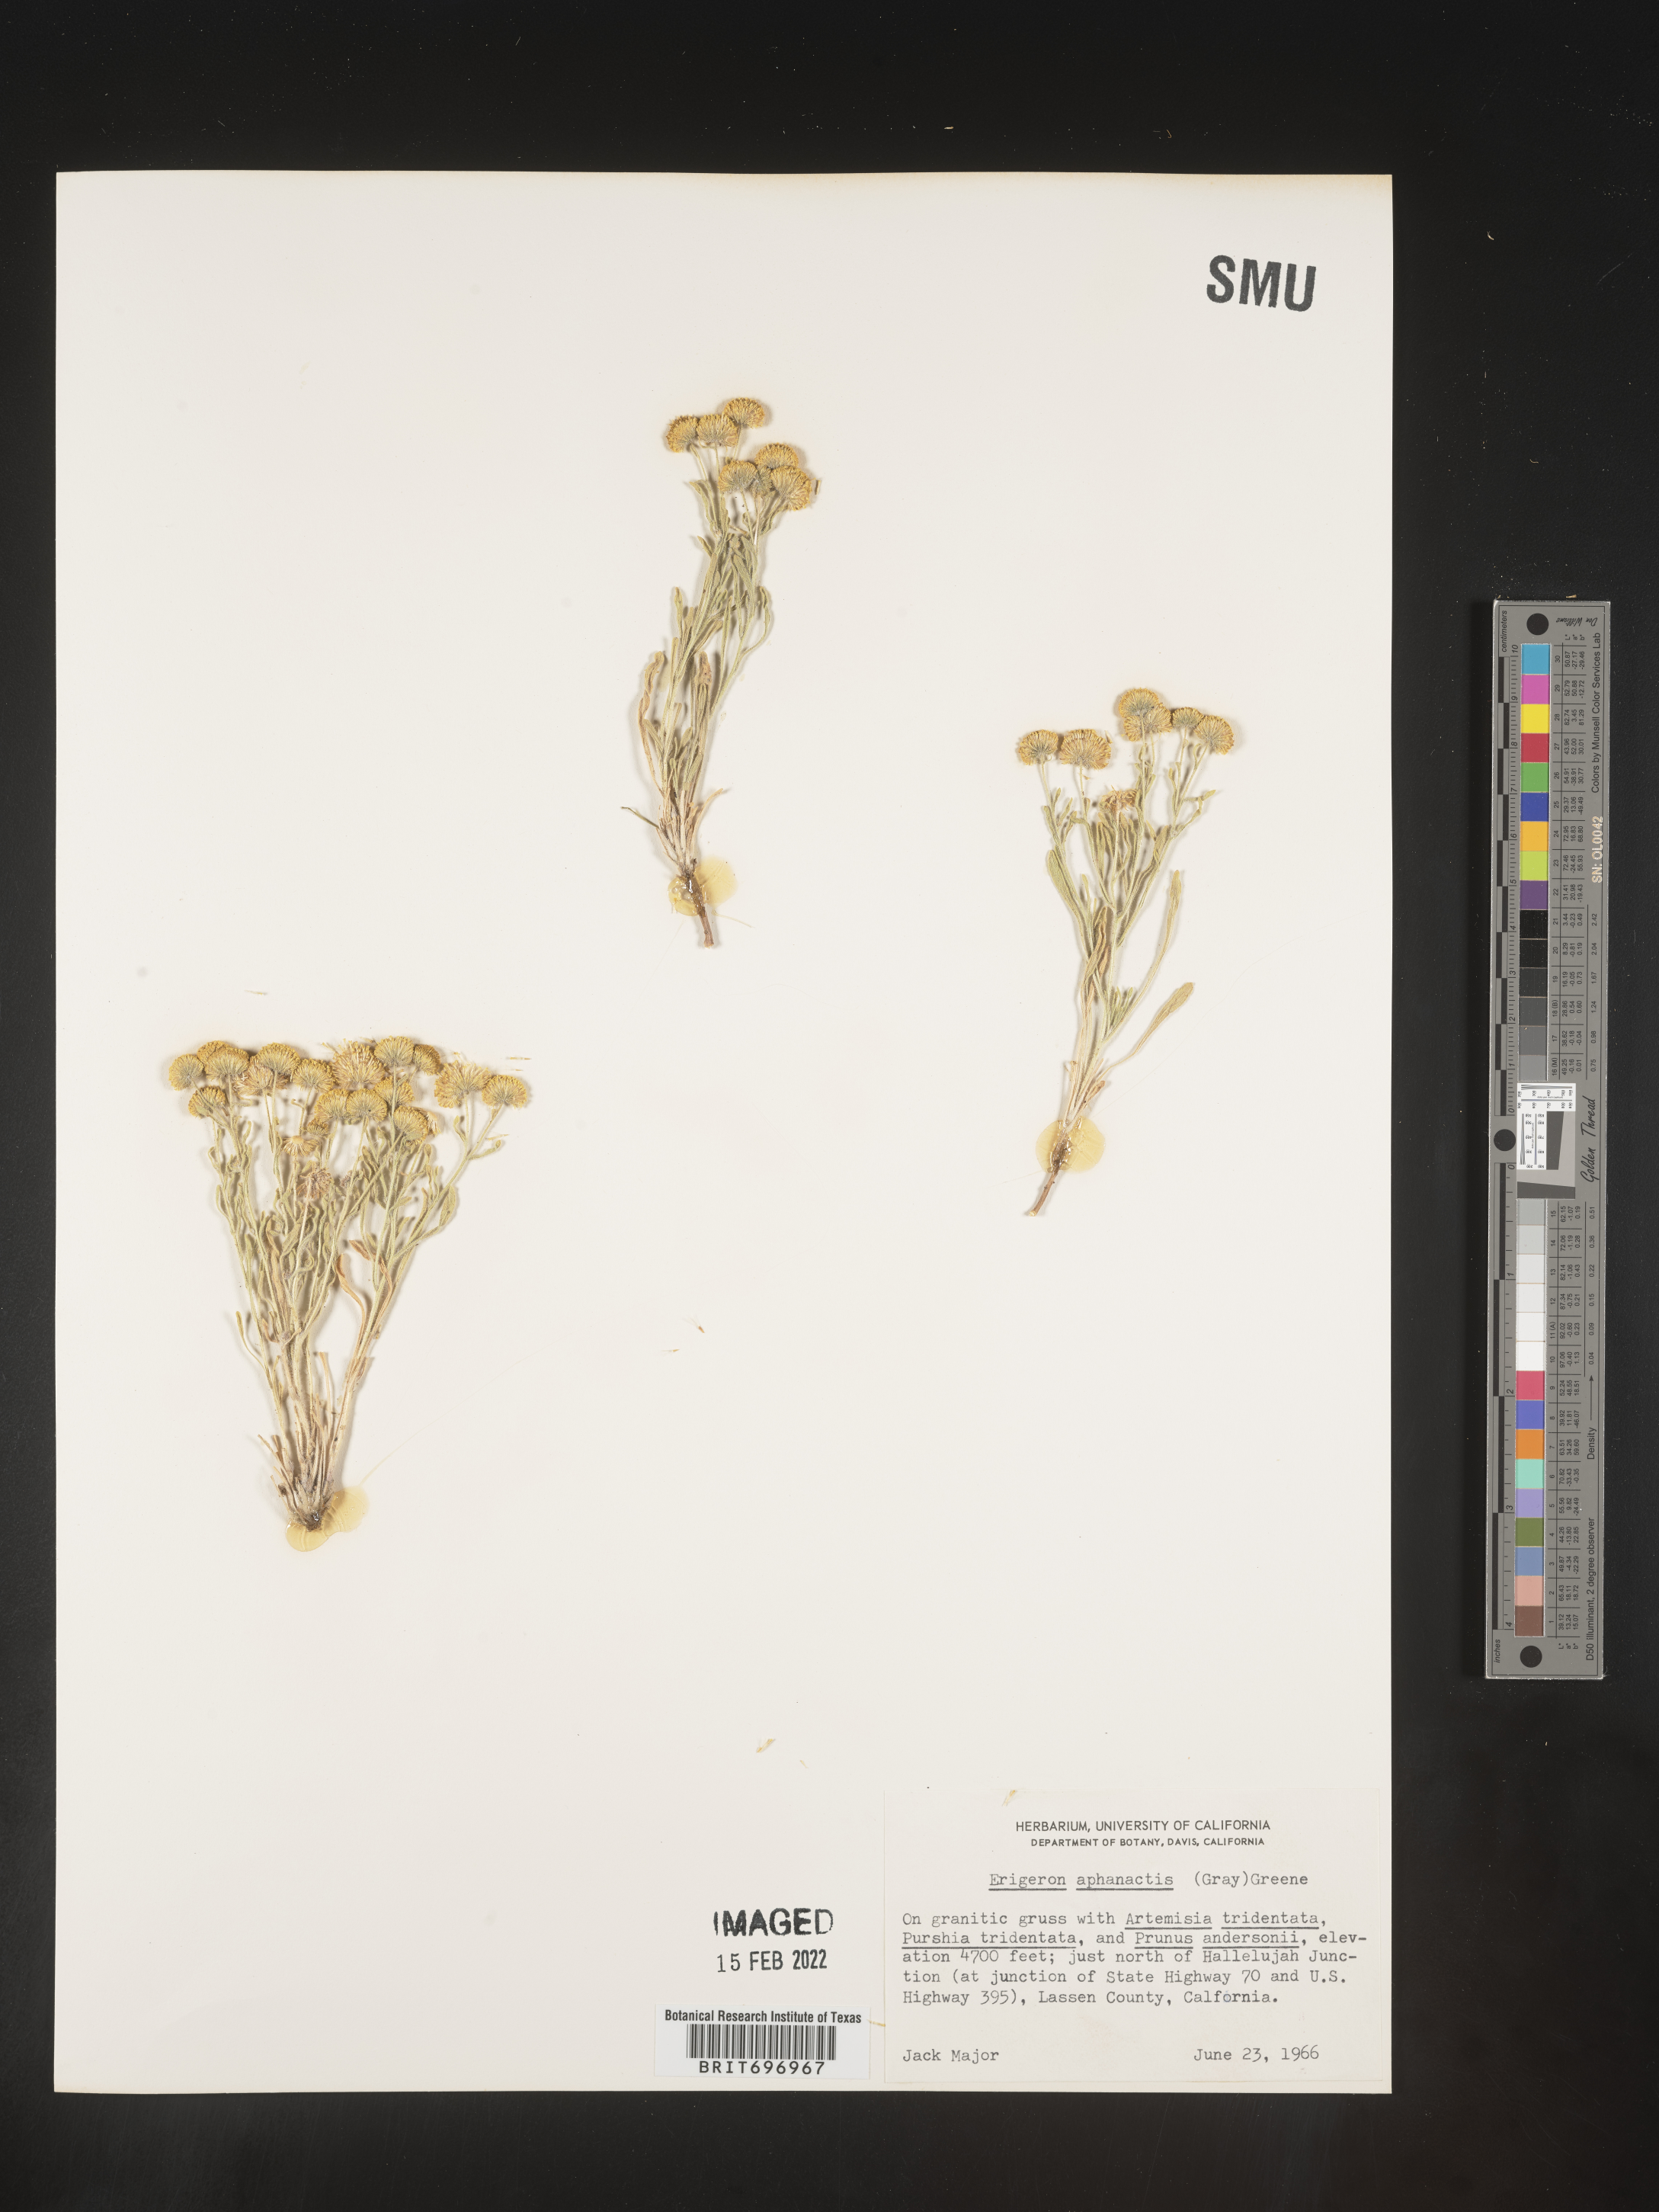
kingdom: Plantae
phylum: Tracheophyta
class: Magnoliopsida
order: Asterales
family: Asteraceae
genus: Erigeron
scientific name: Erigeron aphanactis
